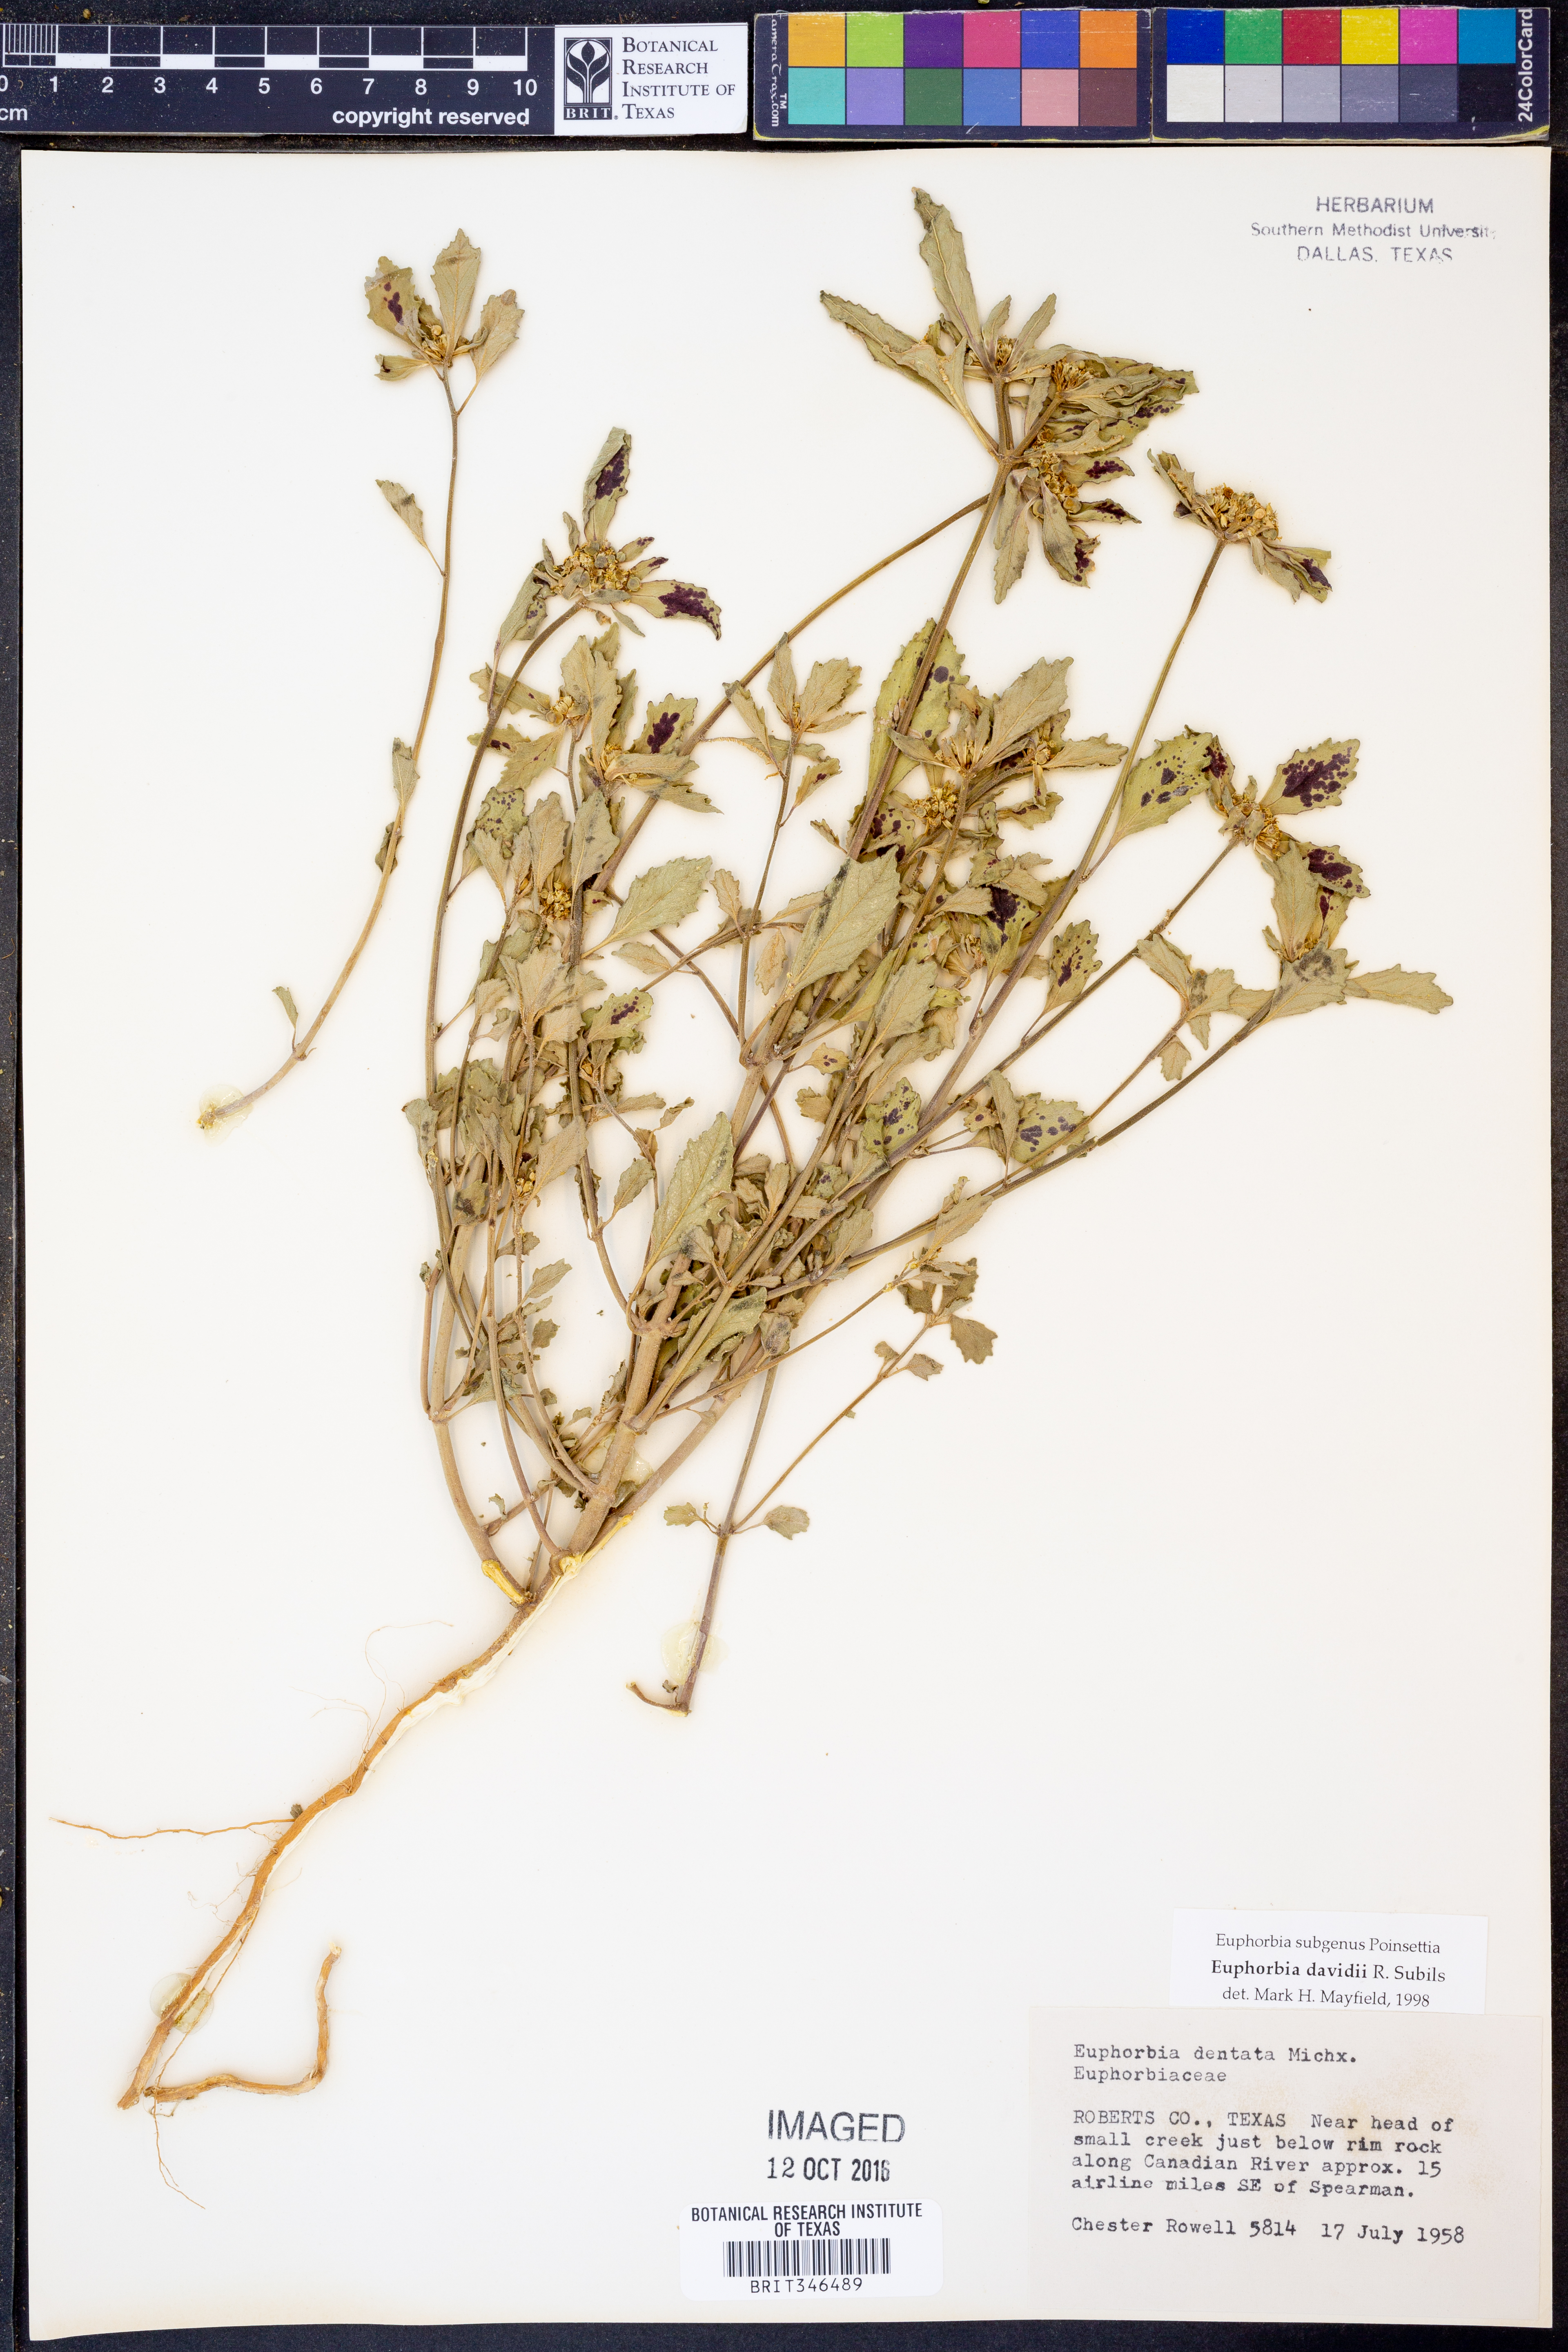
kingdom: Plantae
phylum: Tracheophyta
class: Magnoliopsida
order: Malpighiales
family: Euphorbiaceae
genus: Euphorbia
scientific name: Euphorbia davidii
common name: David's spurge
